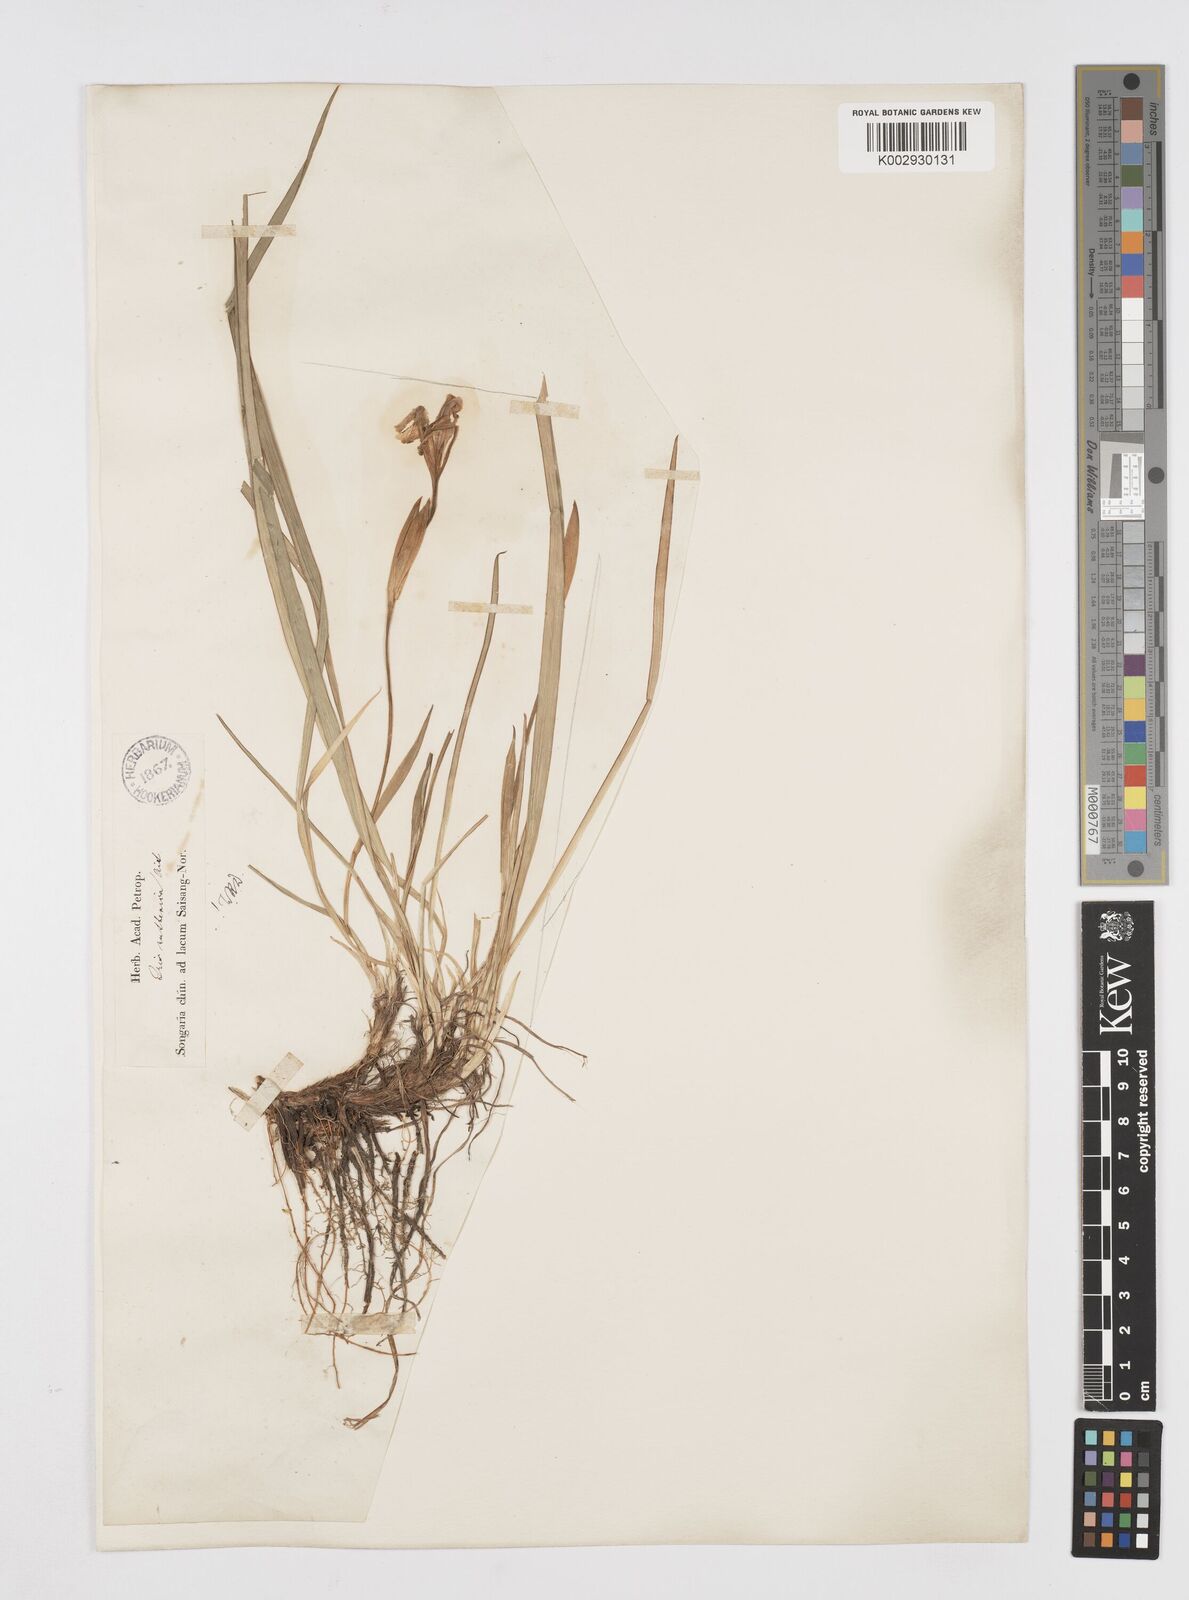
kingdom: Plantae
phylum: Tracheophyta
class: Liliopsida
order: Asparagales
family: Iridaceae
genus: Iris
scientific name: Iris ruthenica
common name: Purple-bract iris
